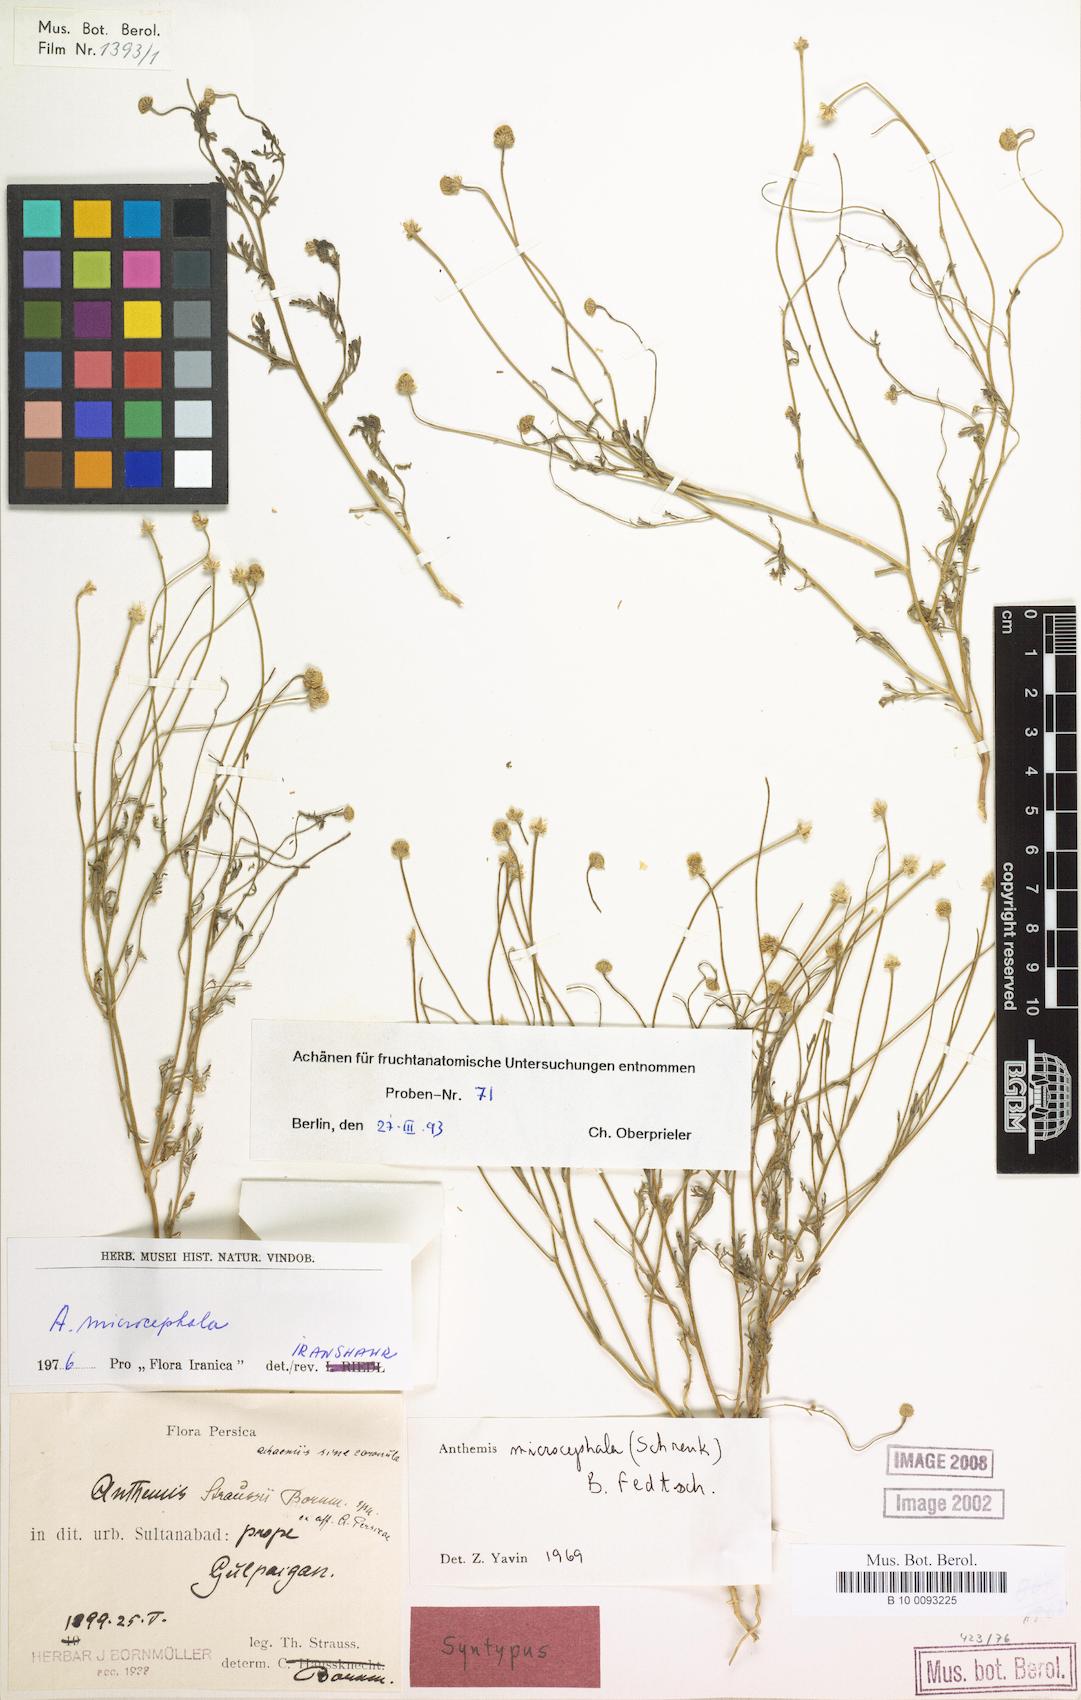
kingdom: Plantae
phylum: Tracheophyta
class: Magnoliopsida
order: Asterales
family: Asteraceae
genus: Anthemis
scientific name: Anthemis microcephala
